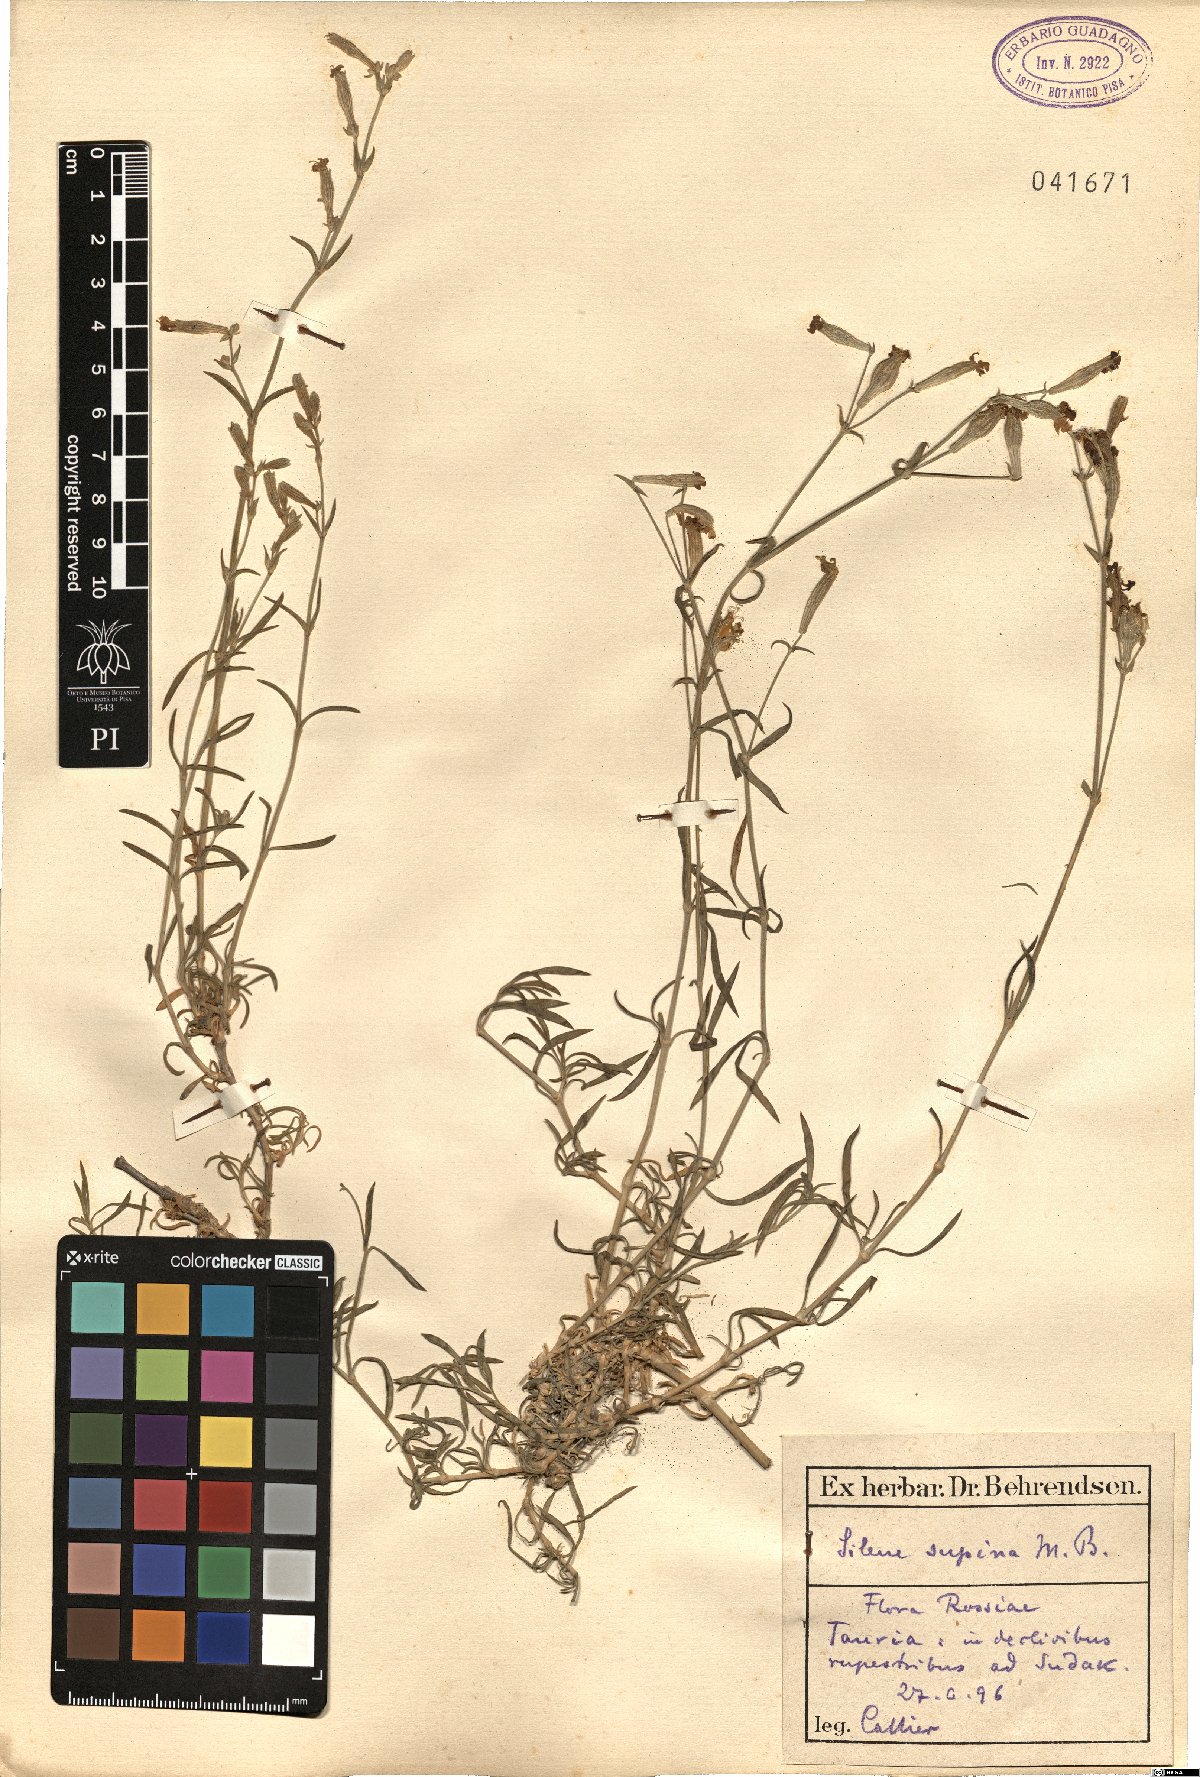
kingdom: Plantae
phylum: Tracheophyta
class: Magnoliopsida
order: Caryophyllales
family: Caryophyllaceae
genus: Silene
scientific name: Silene supina
